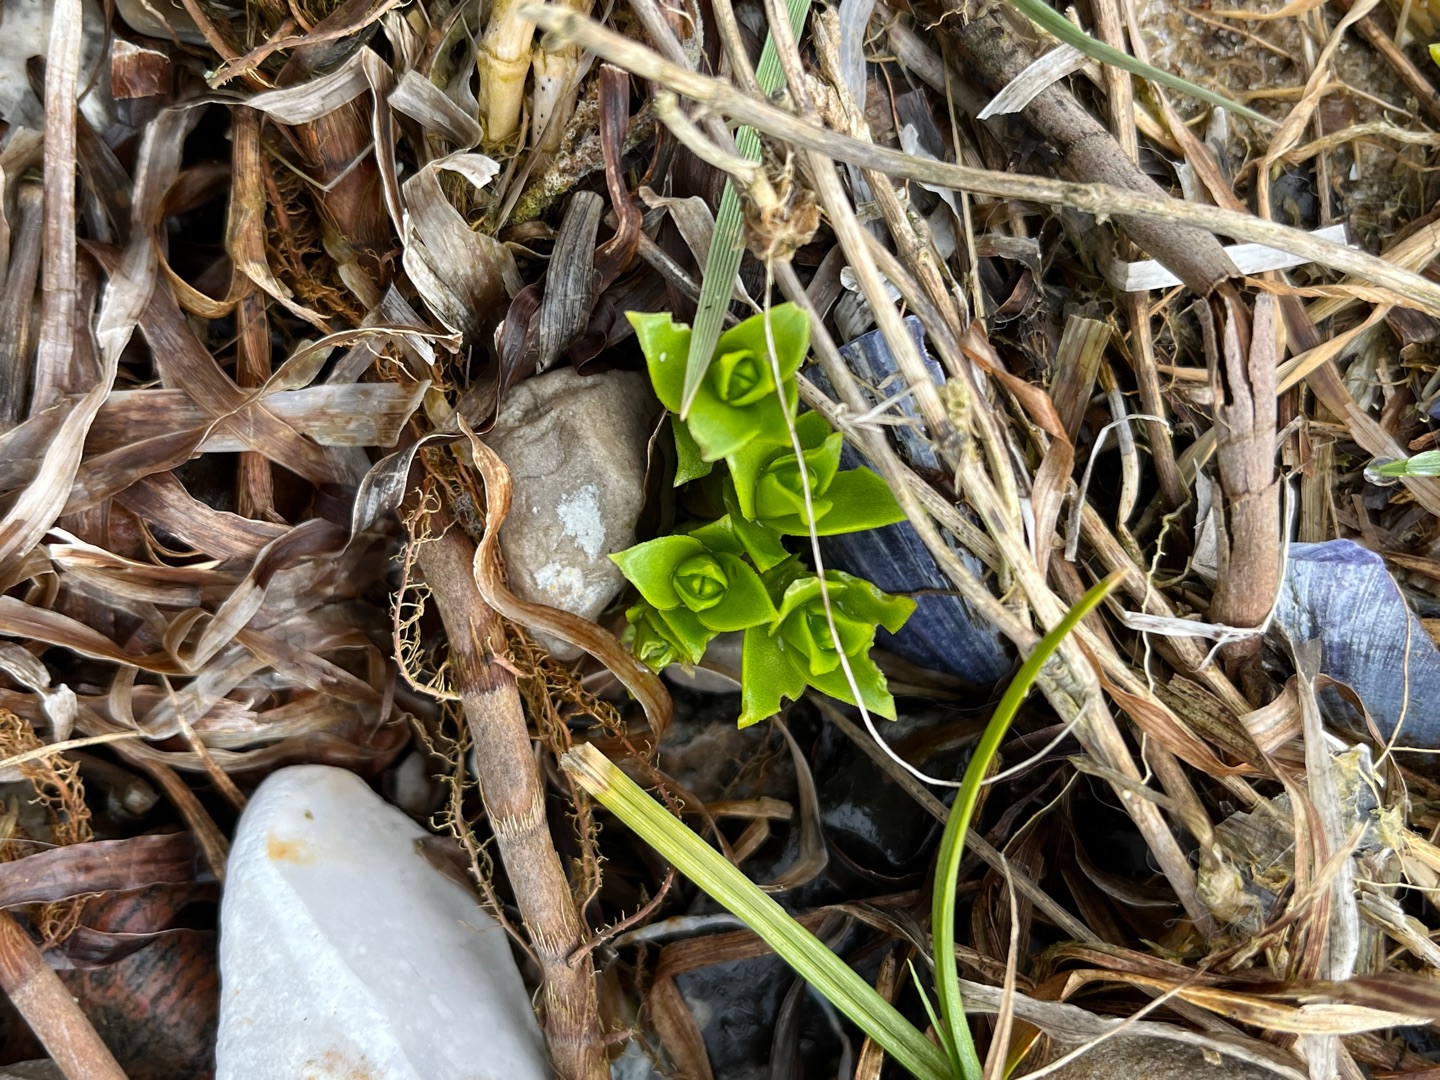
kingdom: Plantae
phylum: Tracheophyta
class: Magnoliopsida
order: Caryophyllales
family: Caryophyllaceae
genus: Honckenya
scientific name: Honckenya peploides
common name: Strandarve
